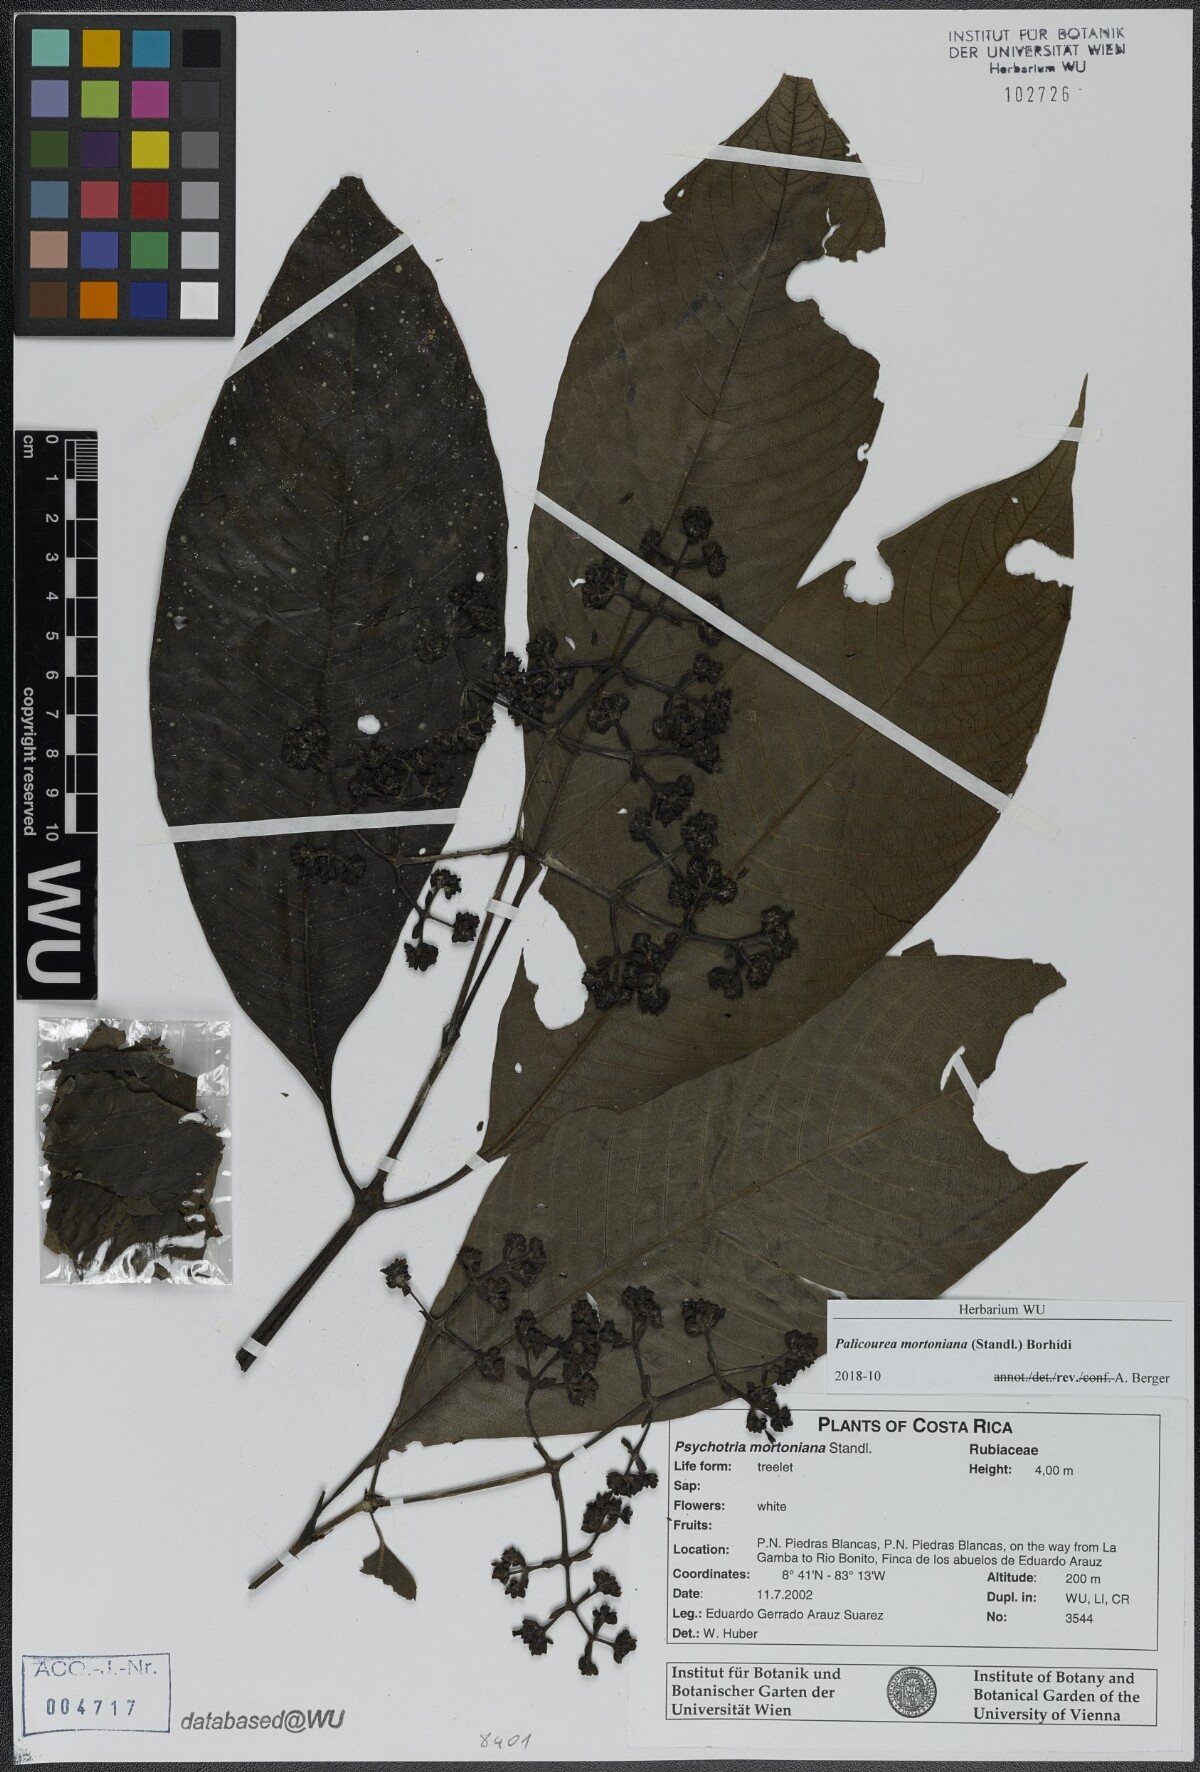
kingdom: Plantae
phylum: Tracheophyta
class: Magnoliopsida
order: Gentianales
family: Rubiaceae
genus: Palicourea
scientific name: Palicourea mortoniana
